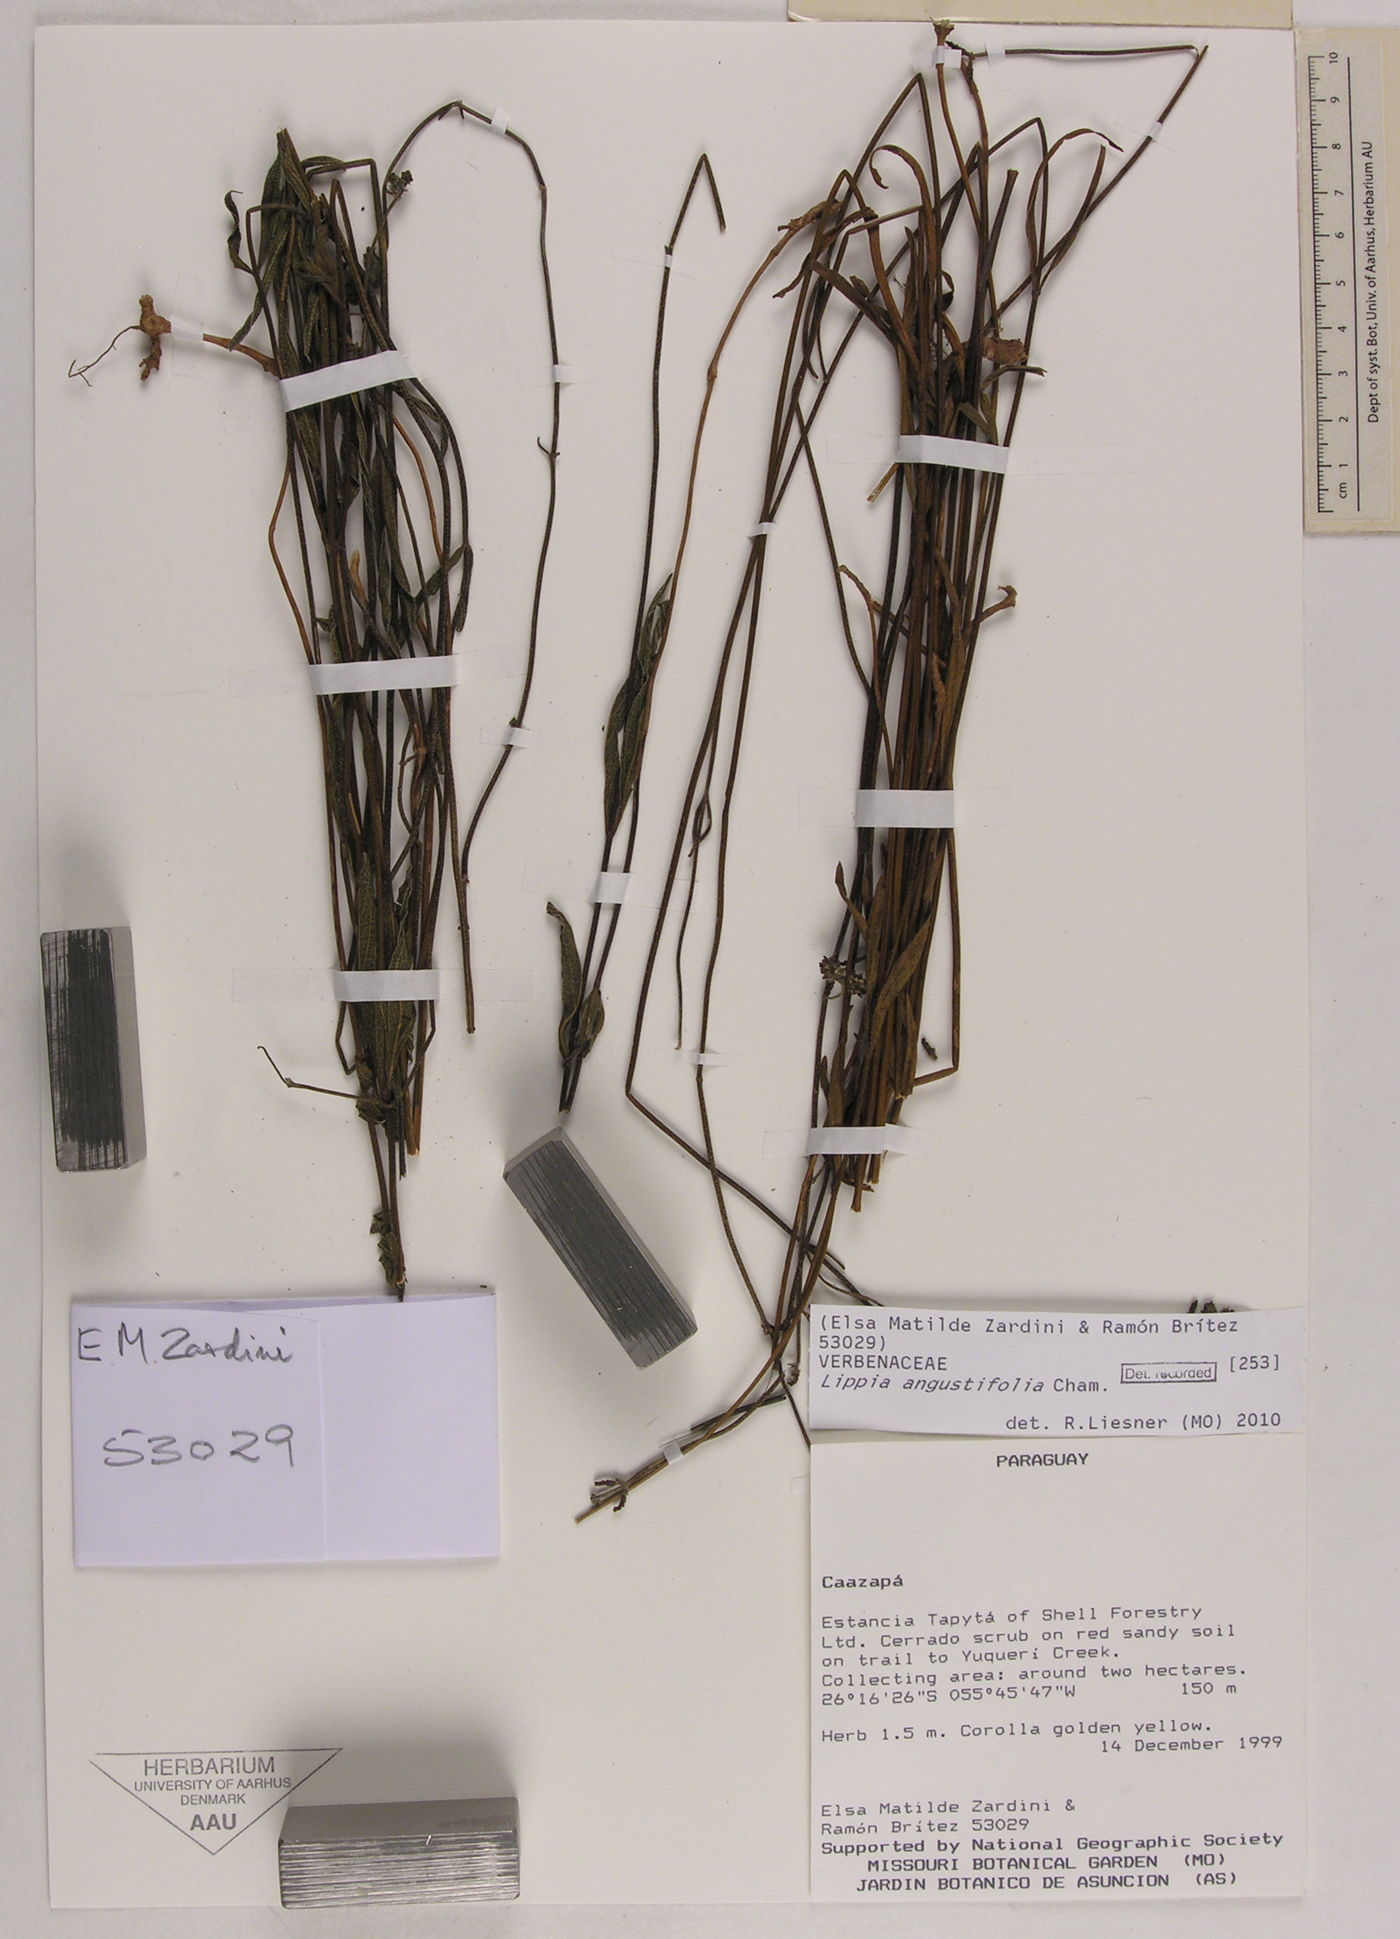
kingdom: Plantae
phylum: Tracheophyta
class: Magnoliopsida
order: Lamiales
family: Verbenaceae
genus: Lippia
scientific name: Lippia angustifolia
